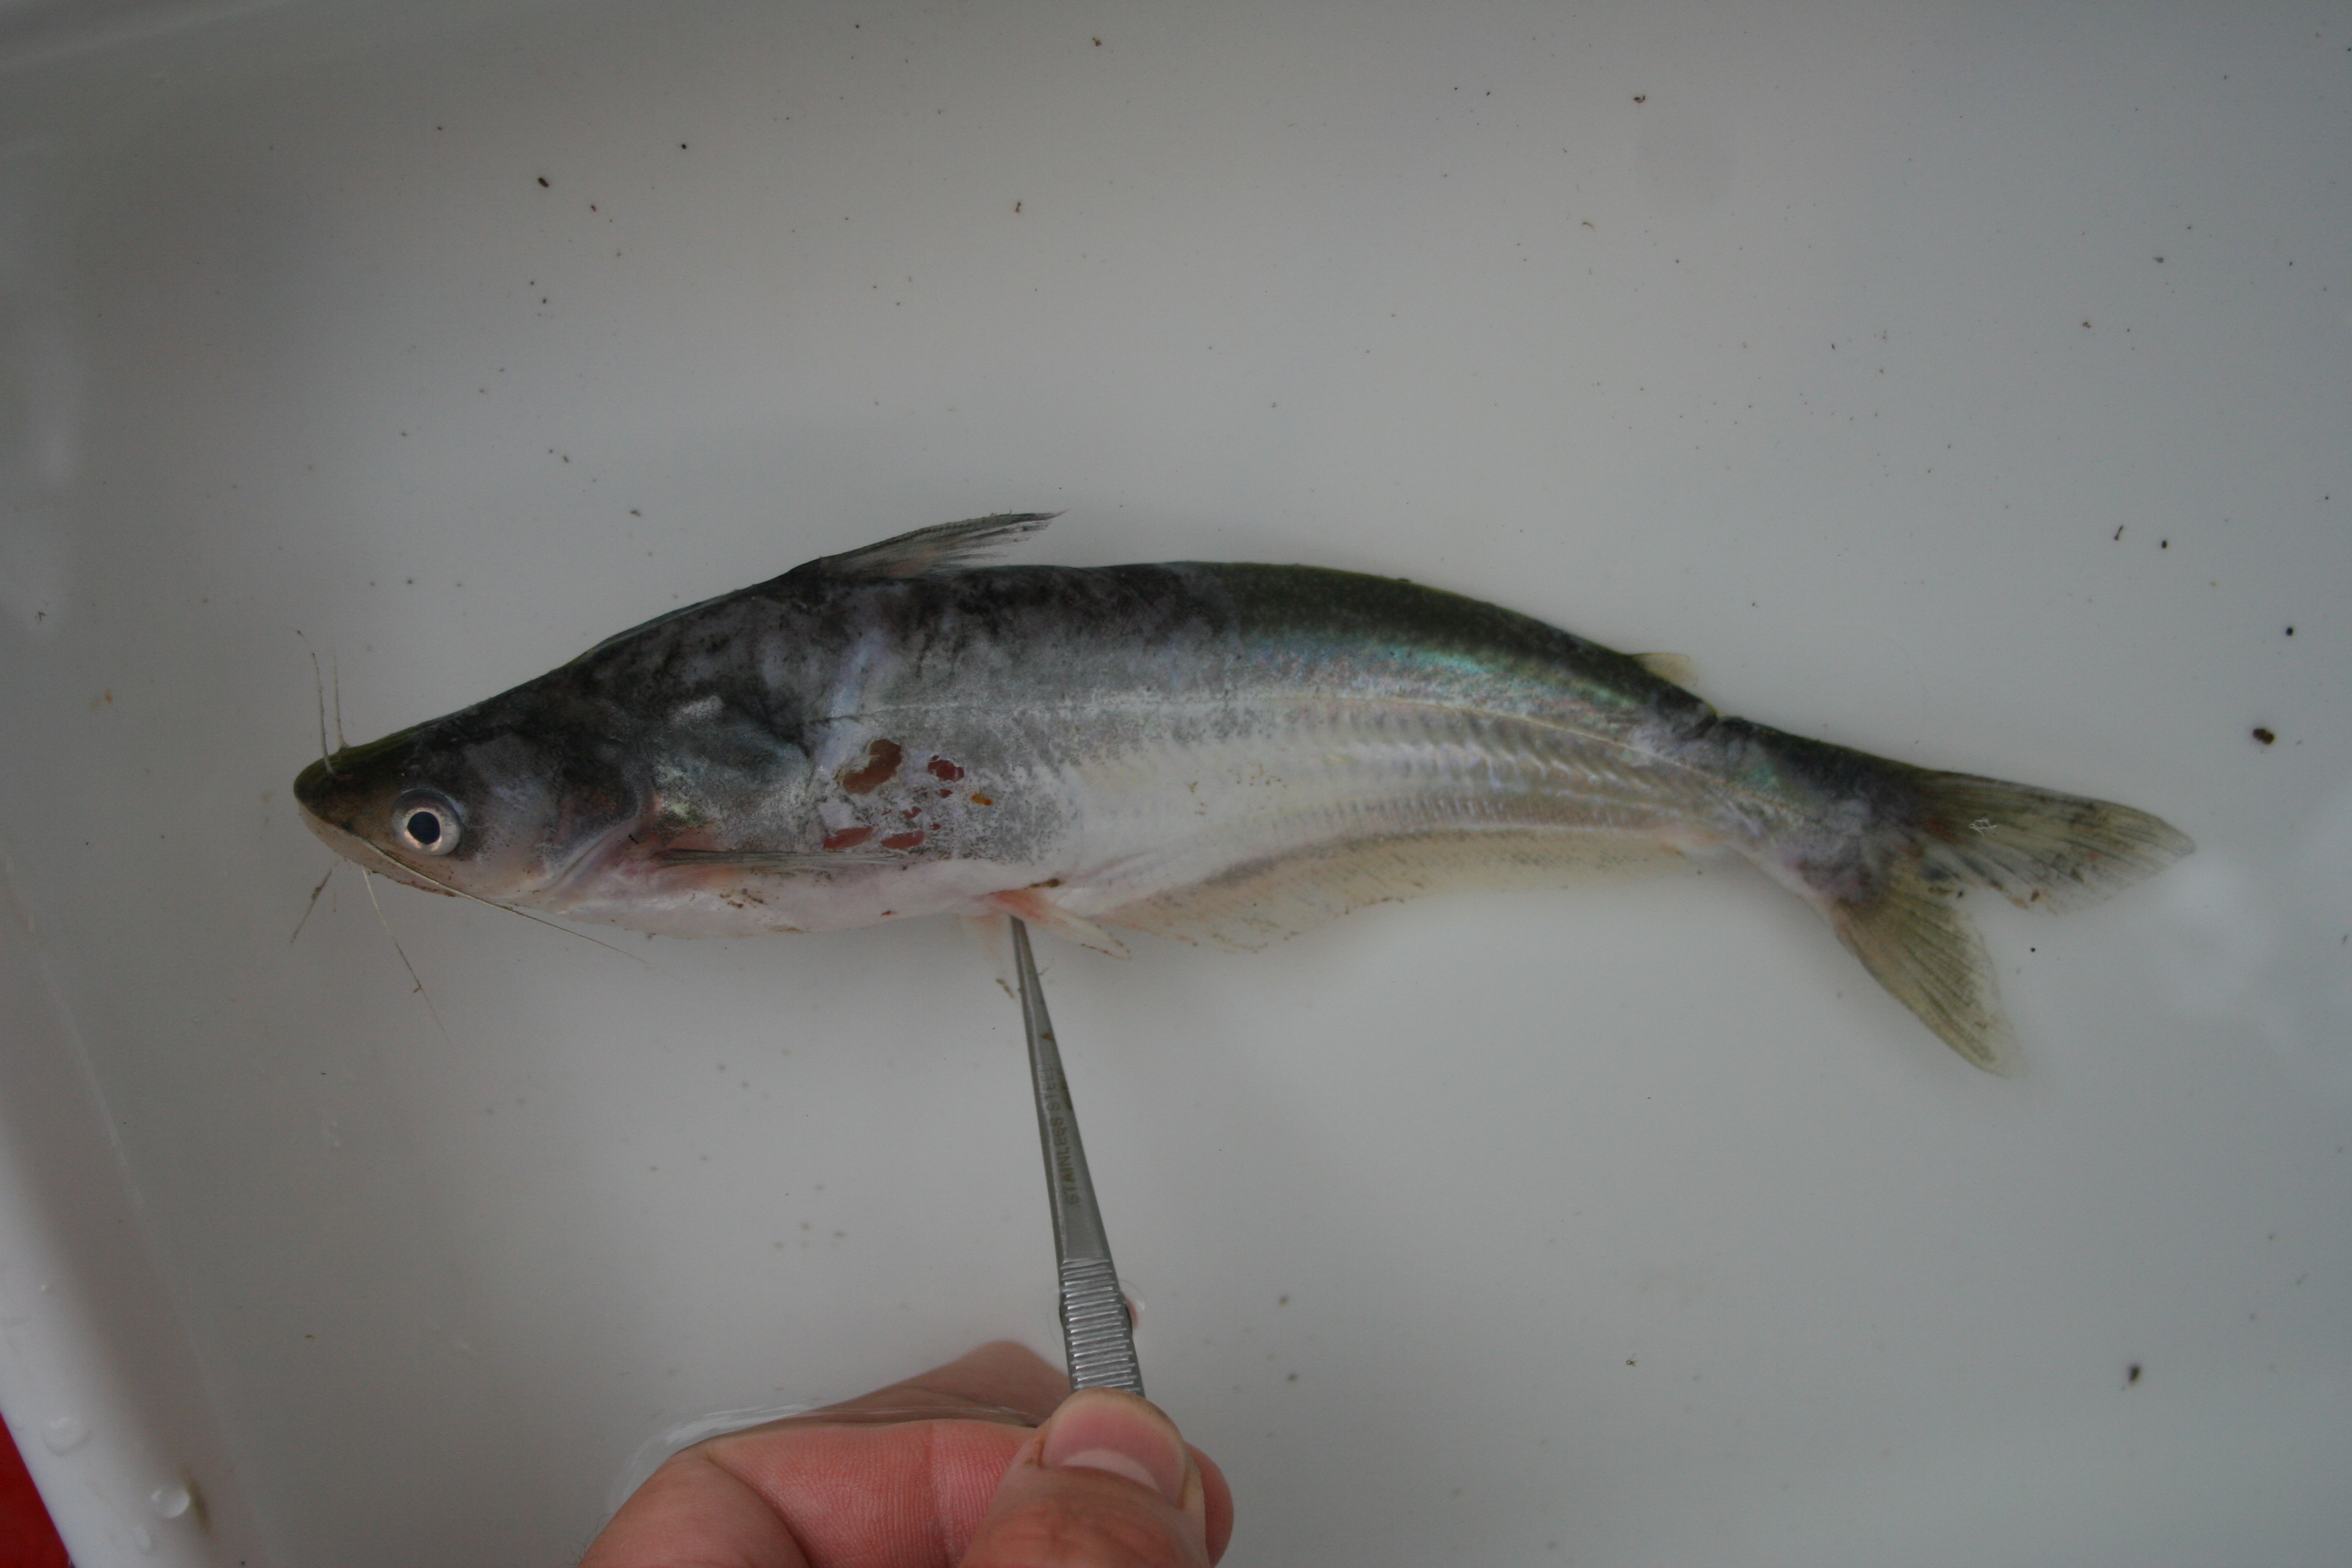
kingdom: Animalia
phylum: Chordata
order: Siluriformes
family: Schilbeidae
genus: Schilbe
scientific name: Schilbe
